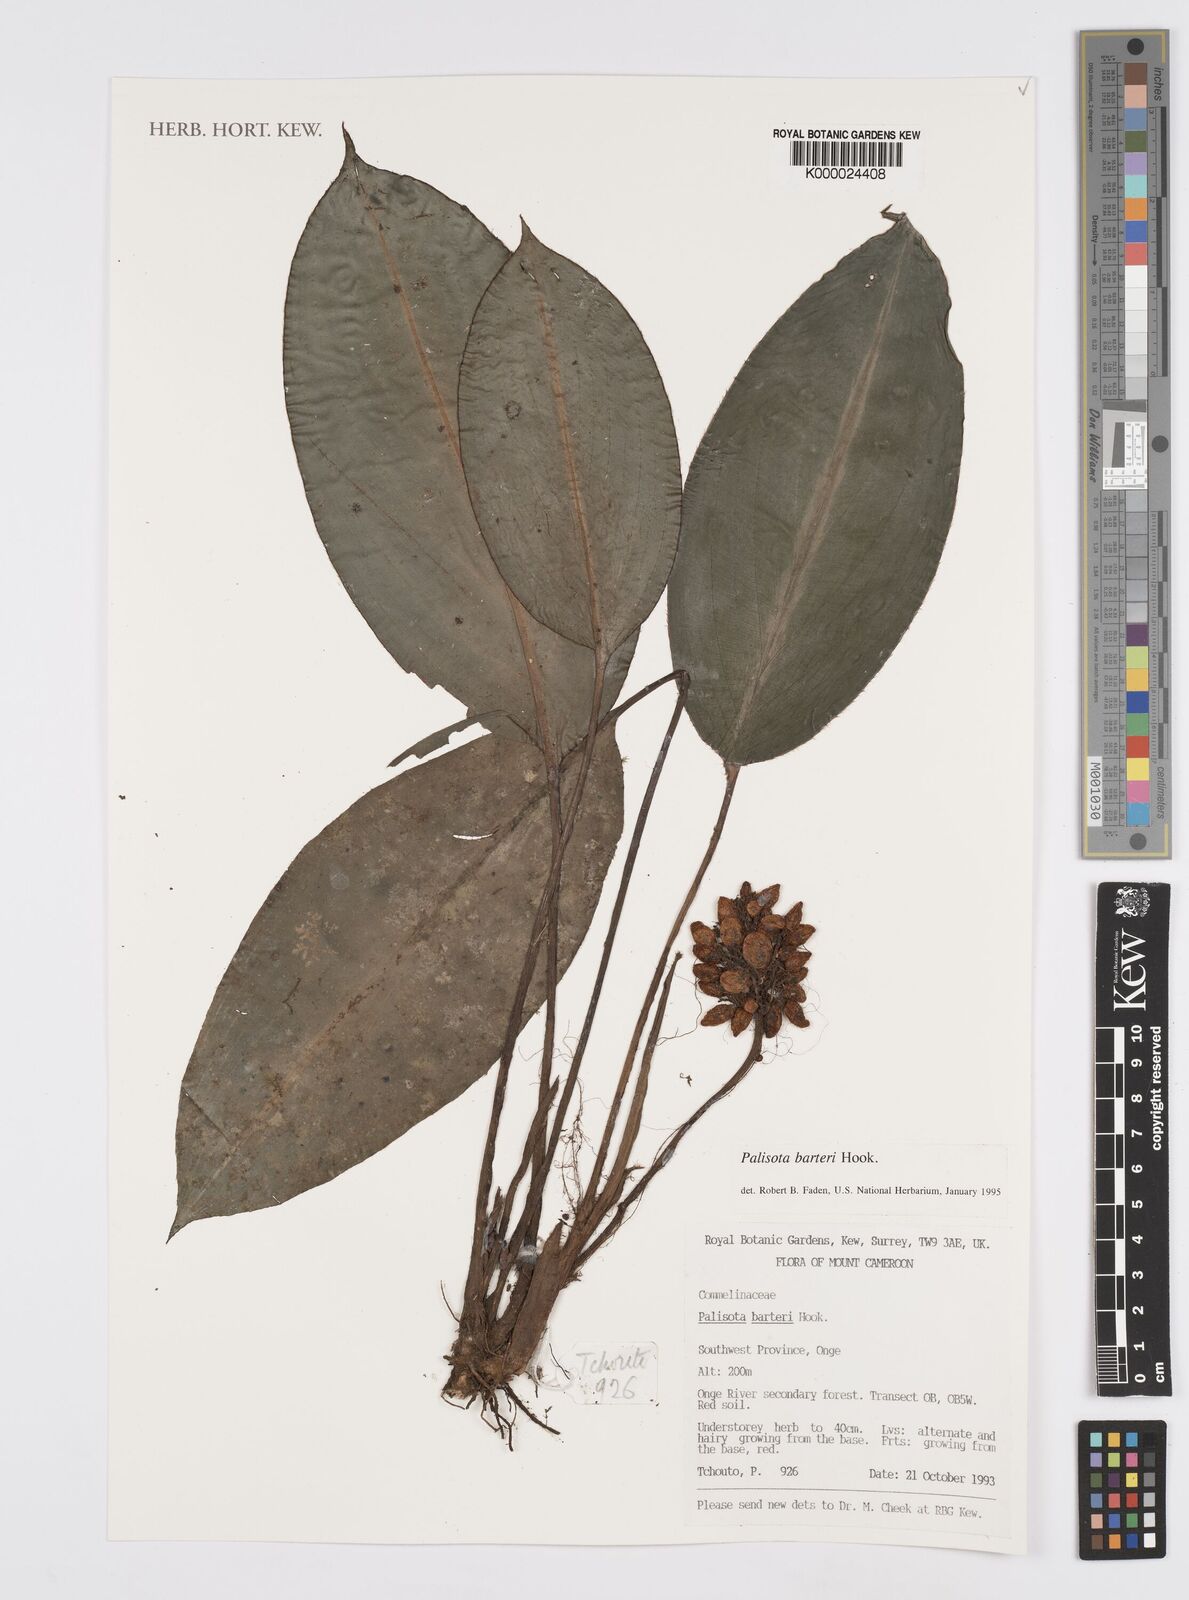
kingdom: Plantae
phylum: Tracheophyta
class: Liliopsida
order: Commelinales
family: Commelinaceae
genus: Palisota
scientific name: Palisota barteri
